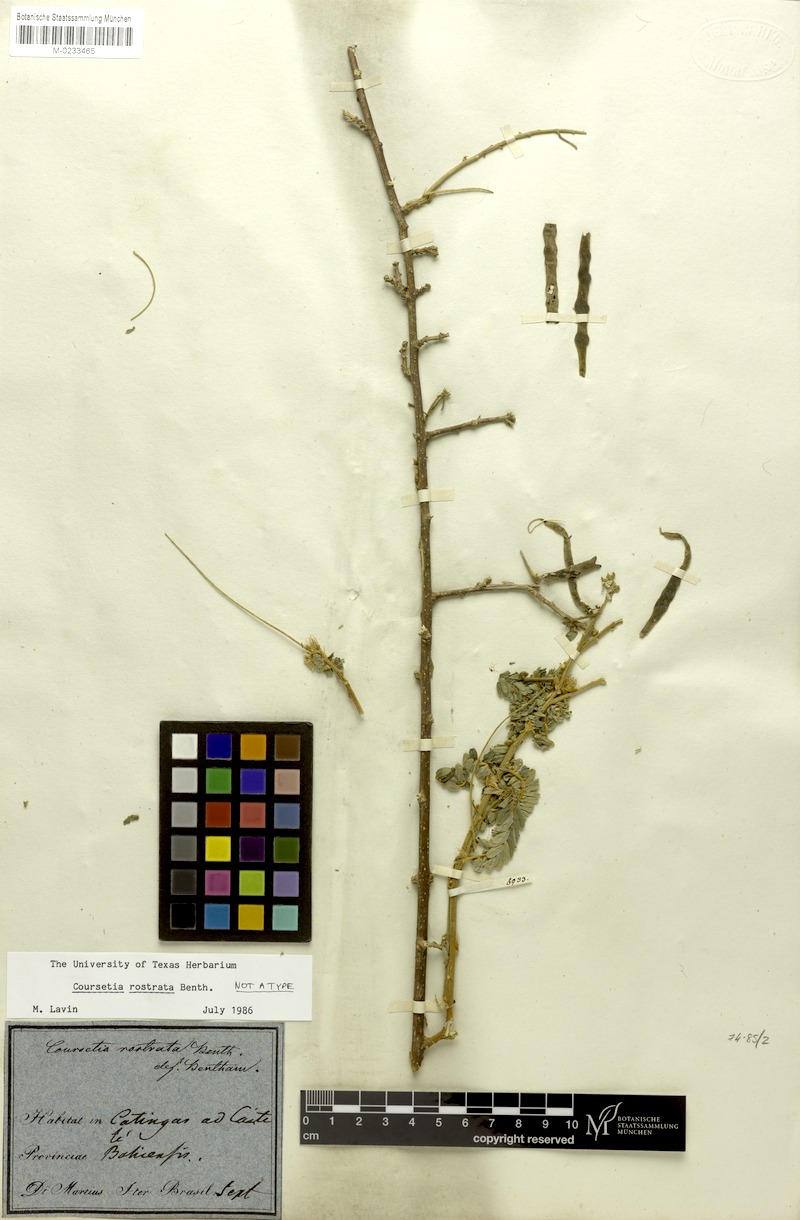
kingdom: Plantae
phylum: Tracheophyta
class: Magnoliopsida
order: Fabales
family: Fabaceae
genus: Coursetia
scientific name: Coursetia rostrata
